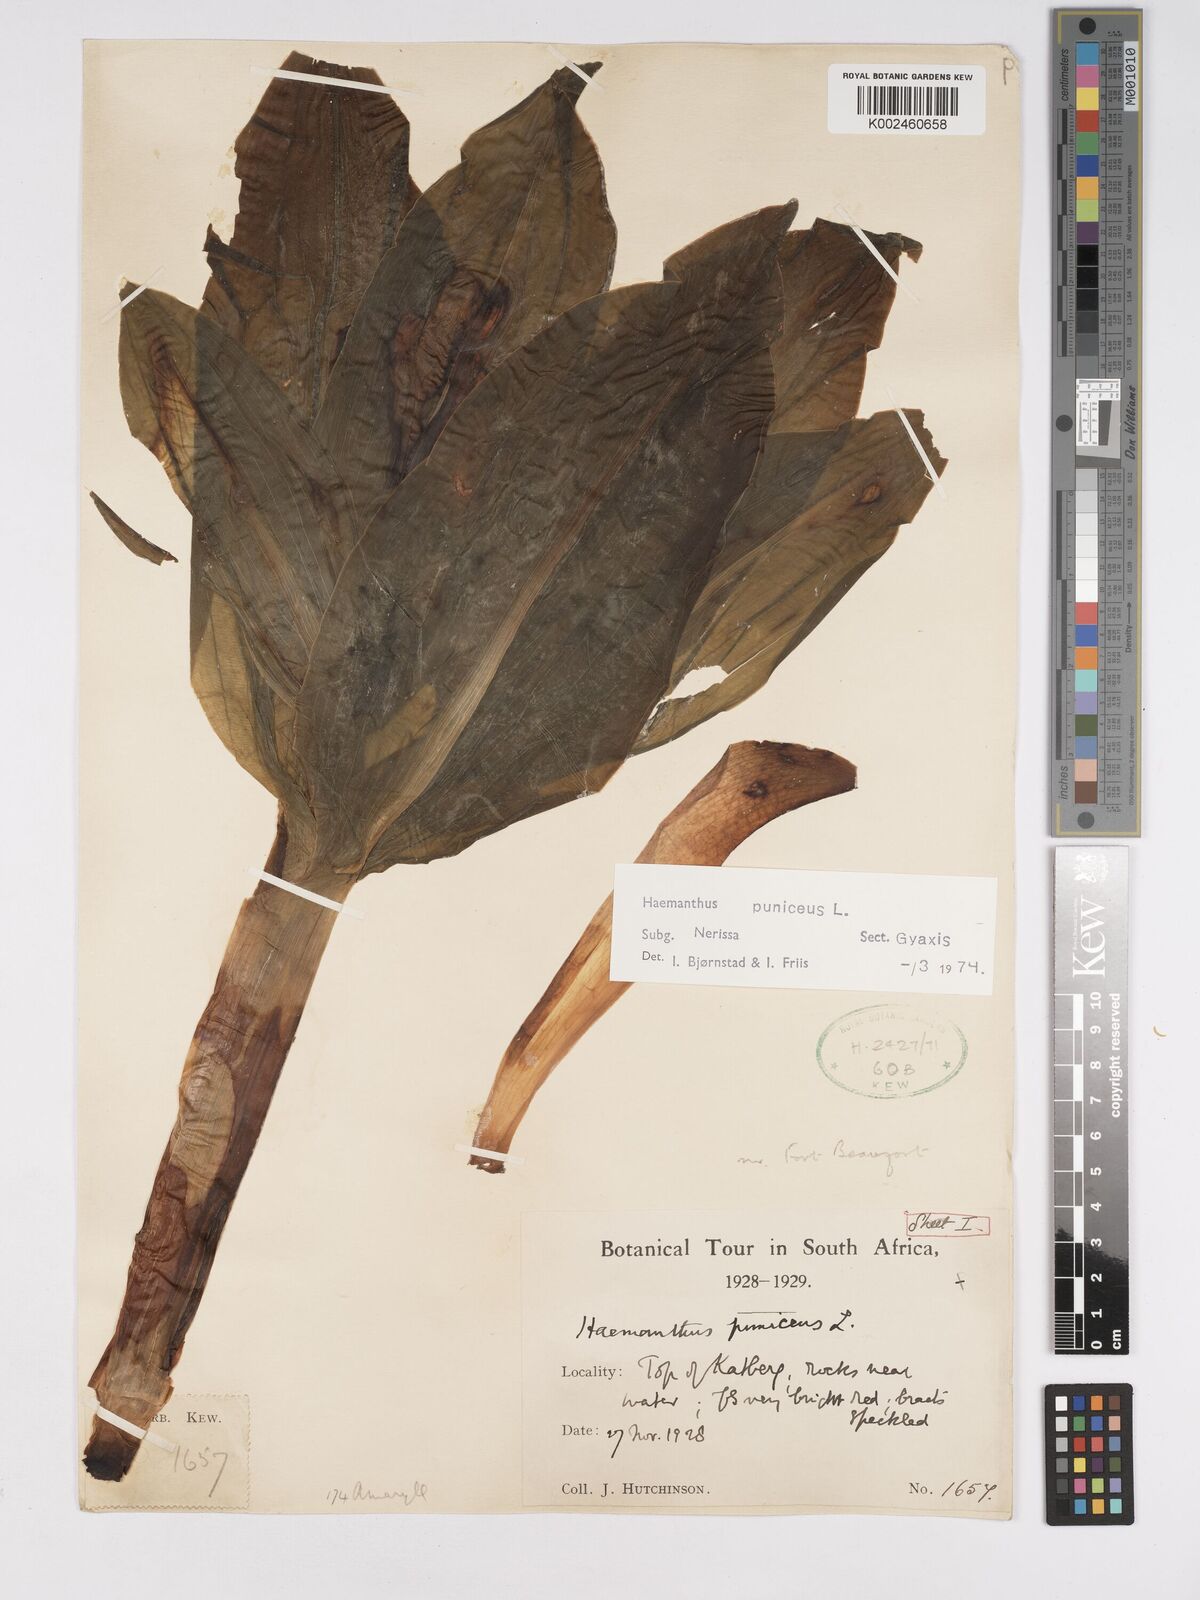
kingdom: Plantae
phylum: Tracheophyta
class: Liliopsida
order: Asparagales
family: Amaryllidaceae
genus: Scadoxus
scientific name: Scadoxus puniceus
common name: Royal-paintbrush
